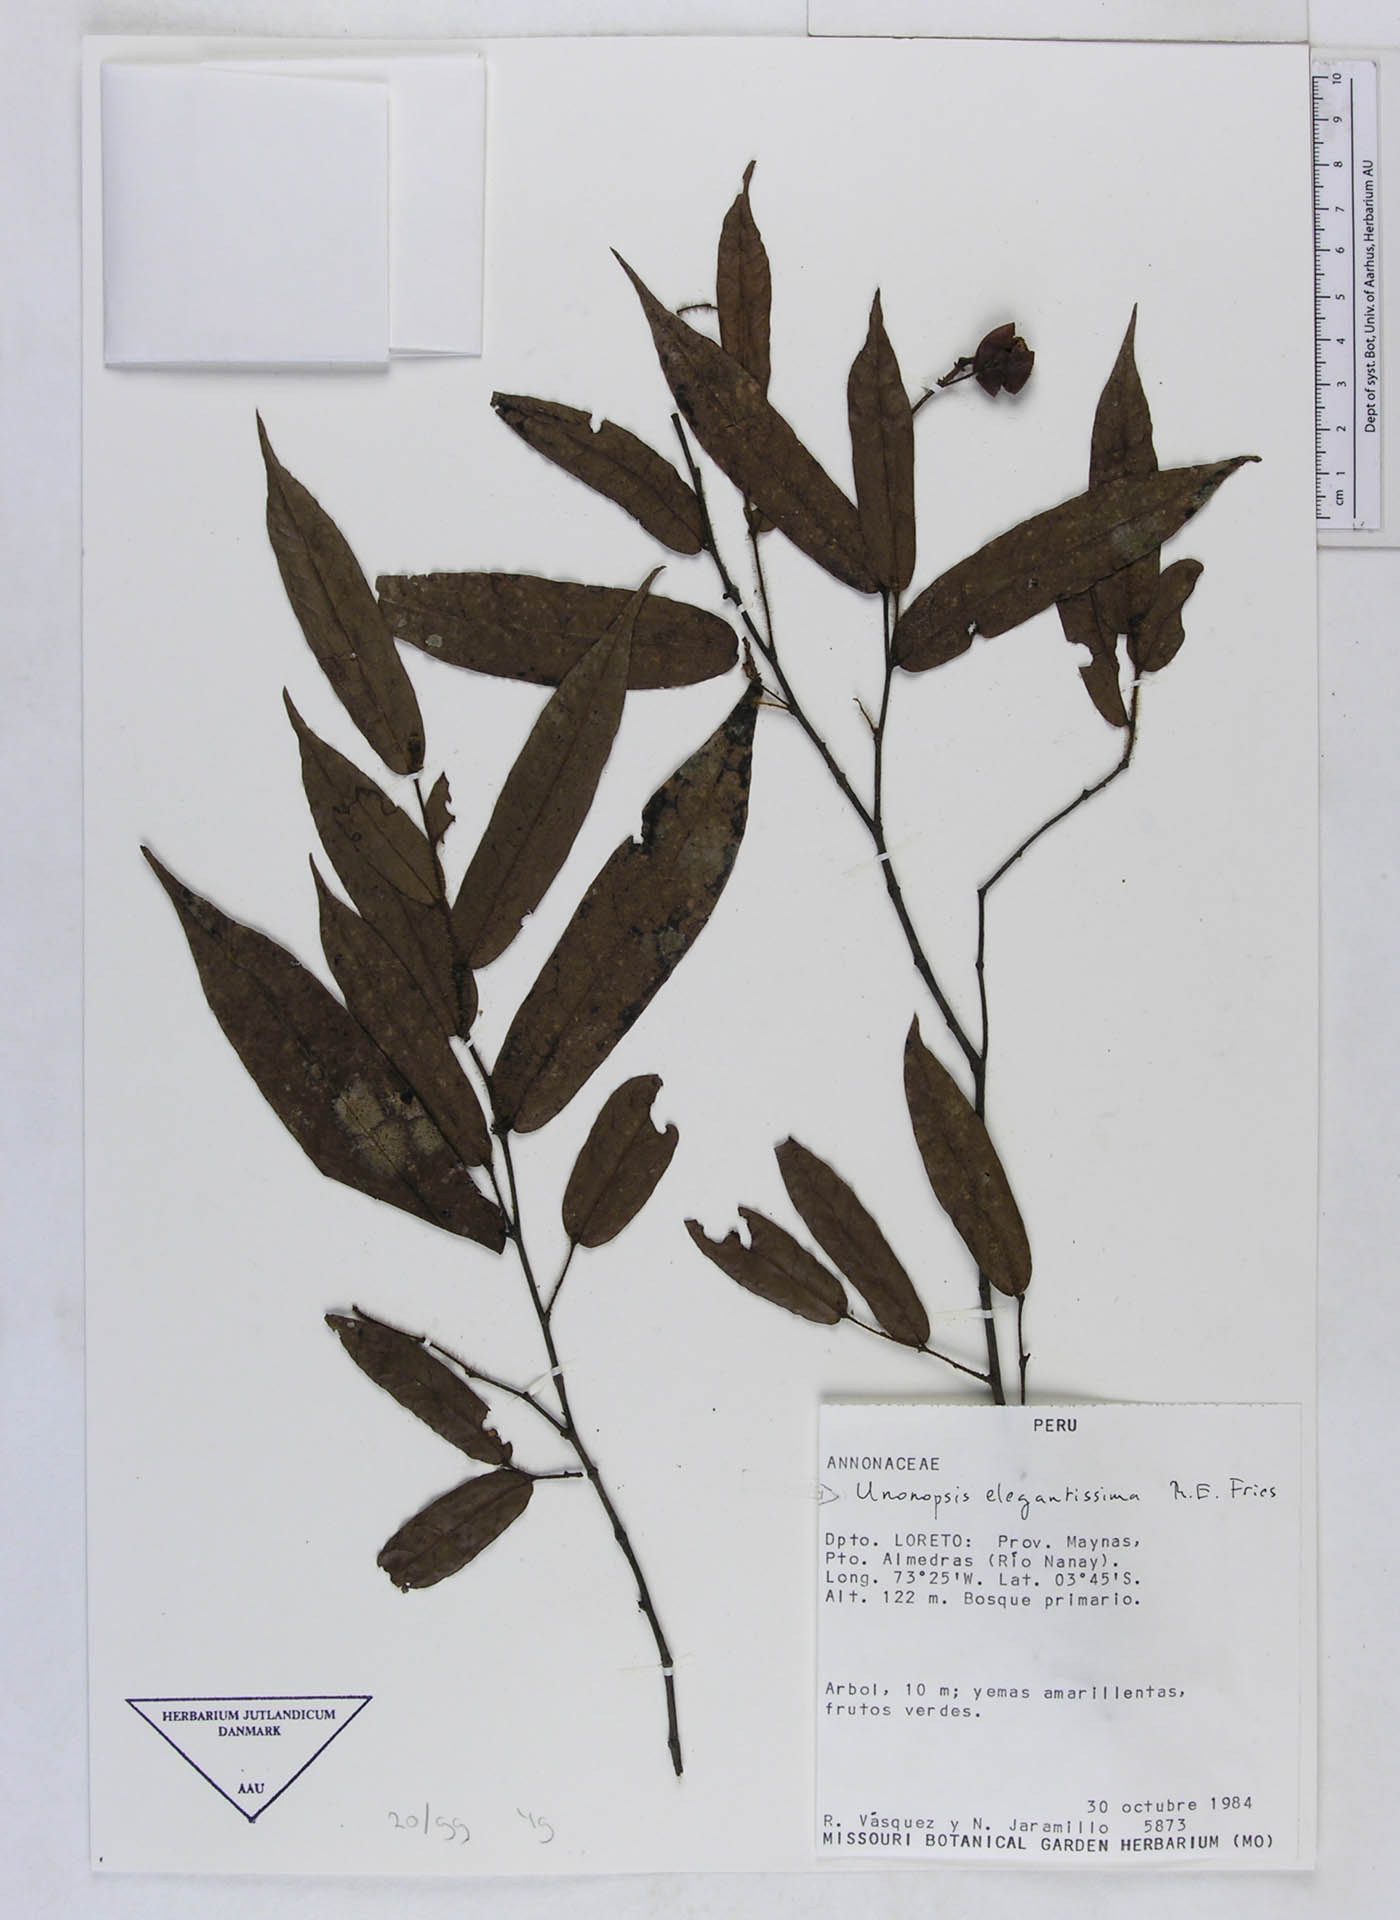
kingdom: Plantae
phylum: Tracheophyta
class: Magnoliopsida
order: Magnoliales
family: Annonaceae
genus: Unonopsis
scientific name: Unonopsis elegantissima
